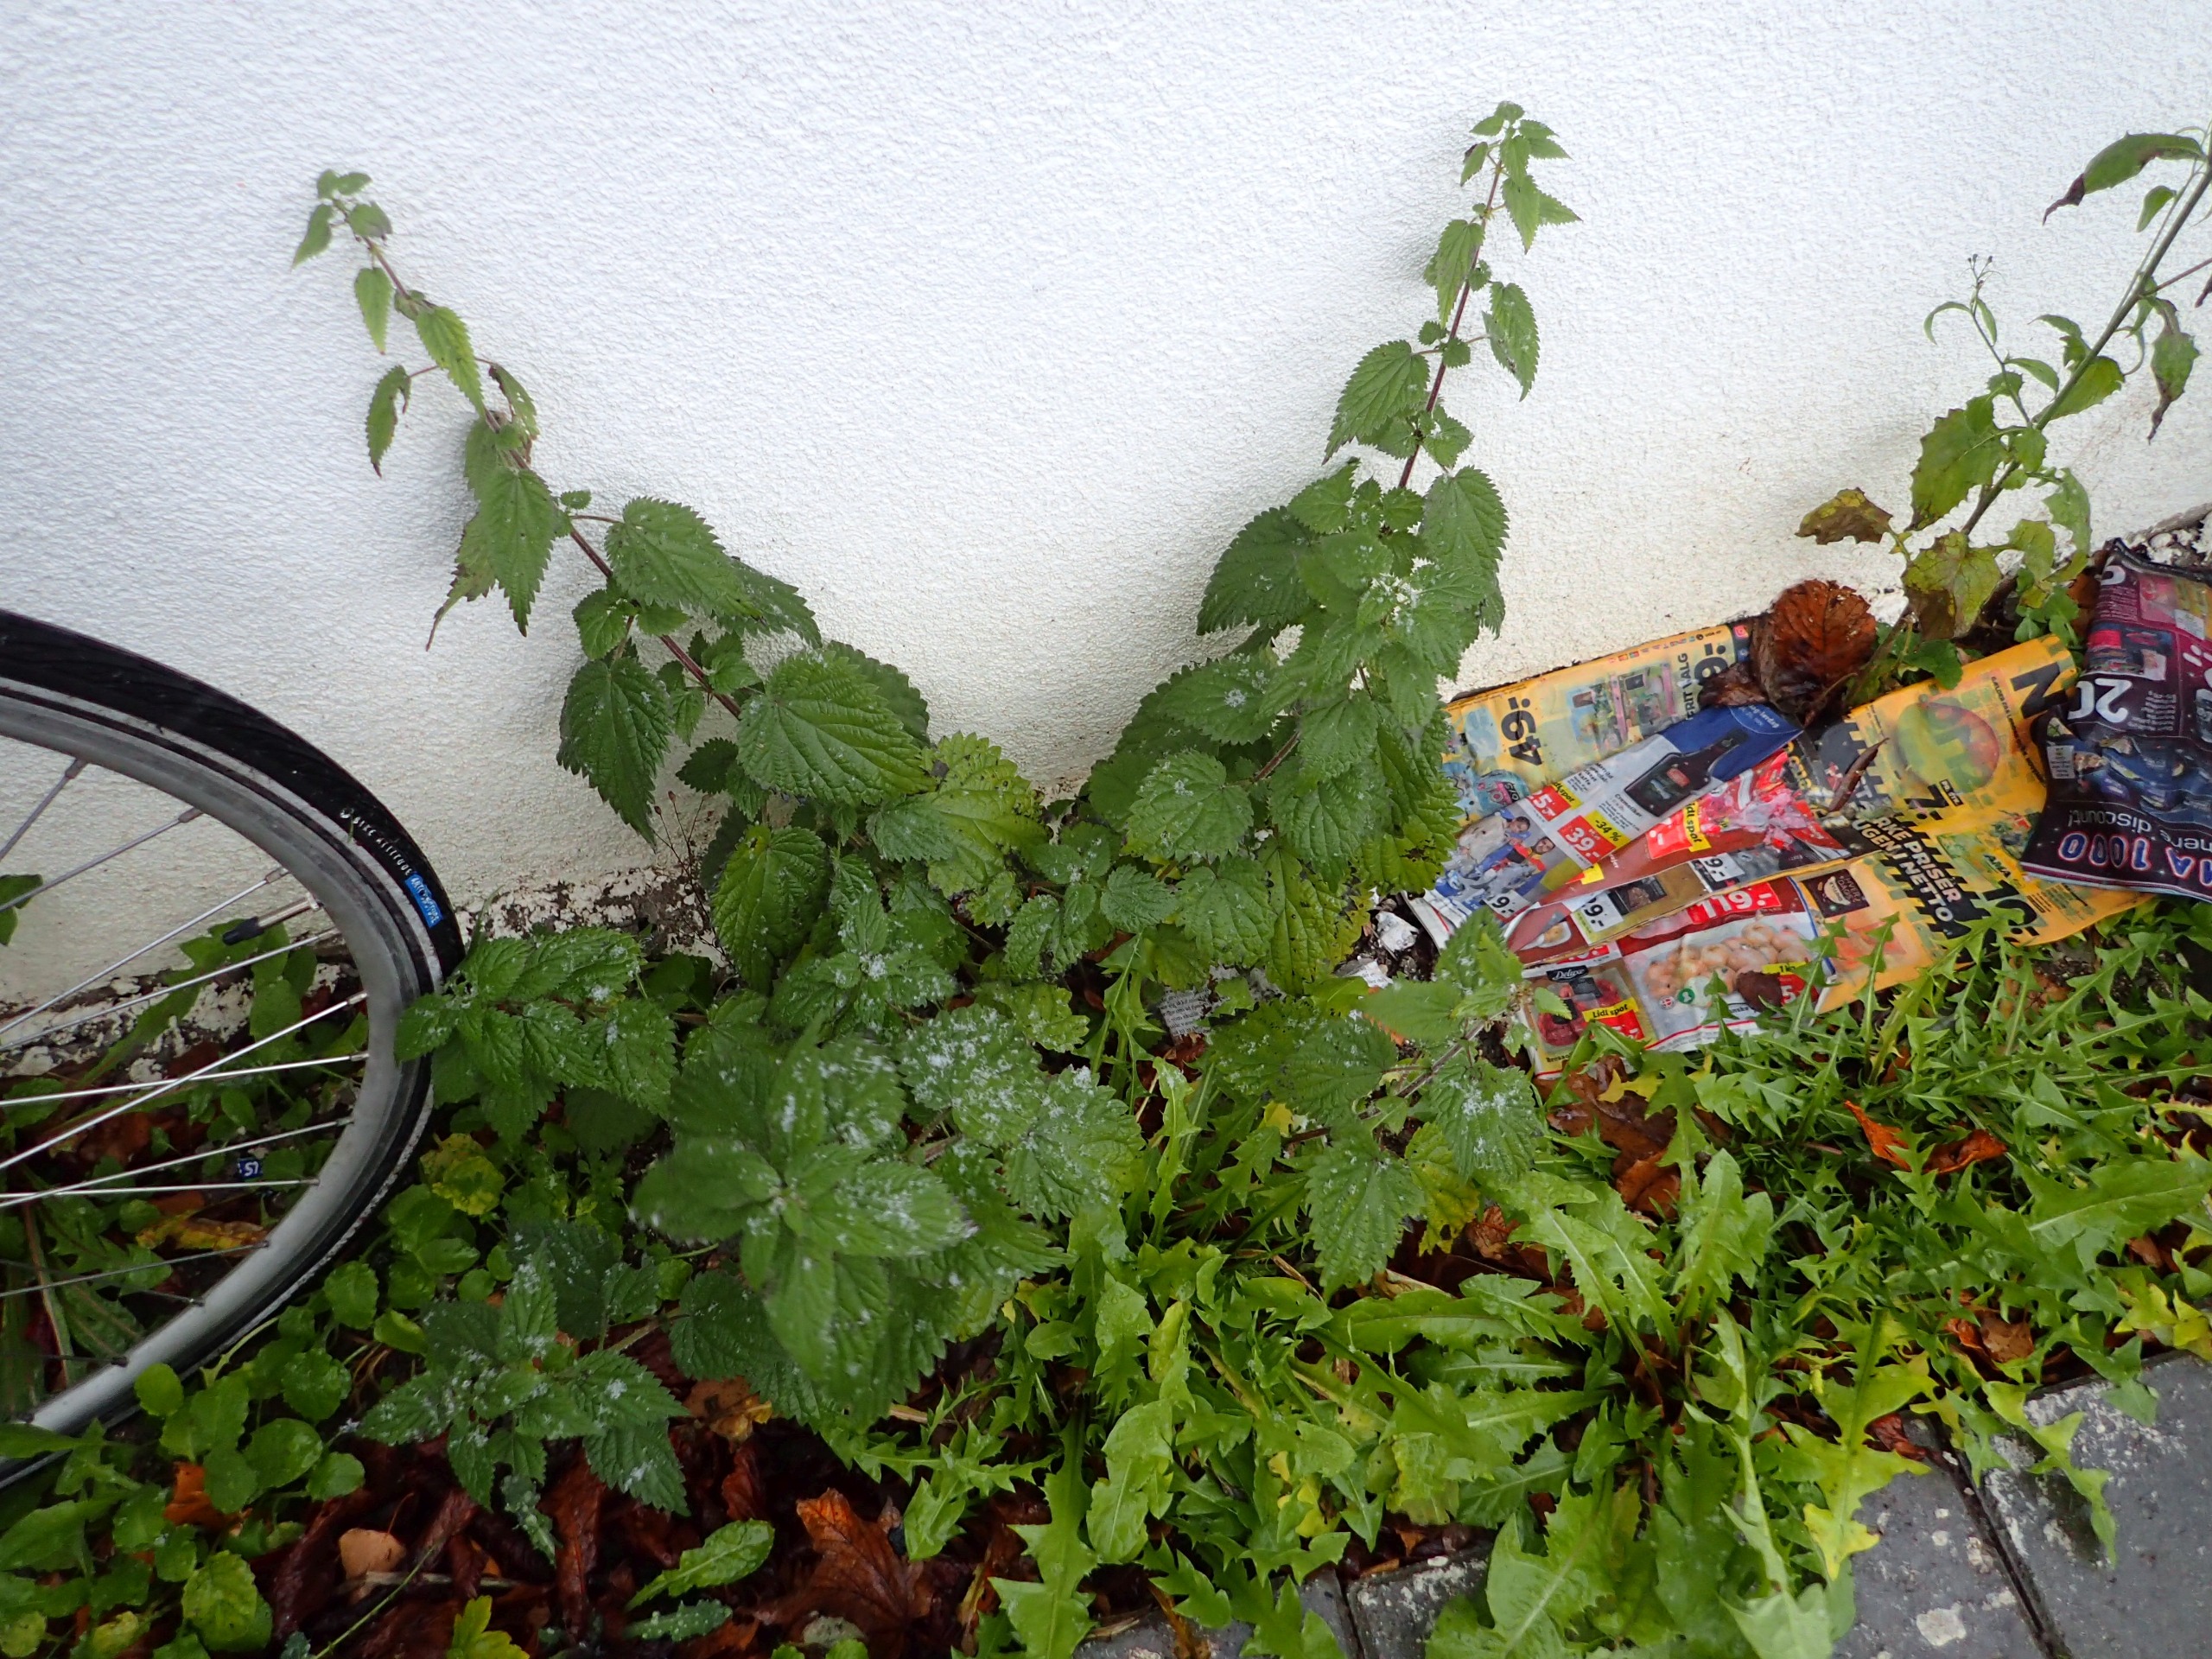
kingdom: Plantae
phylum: Tracheophyta
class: Magnoliopsida
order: Rosales
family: Urticaceae
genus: Urtica
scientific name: Urtica dioica
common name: Stor nælde
